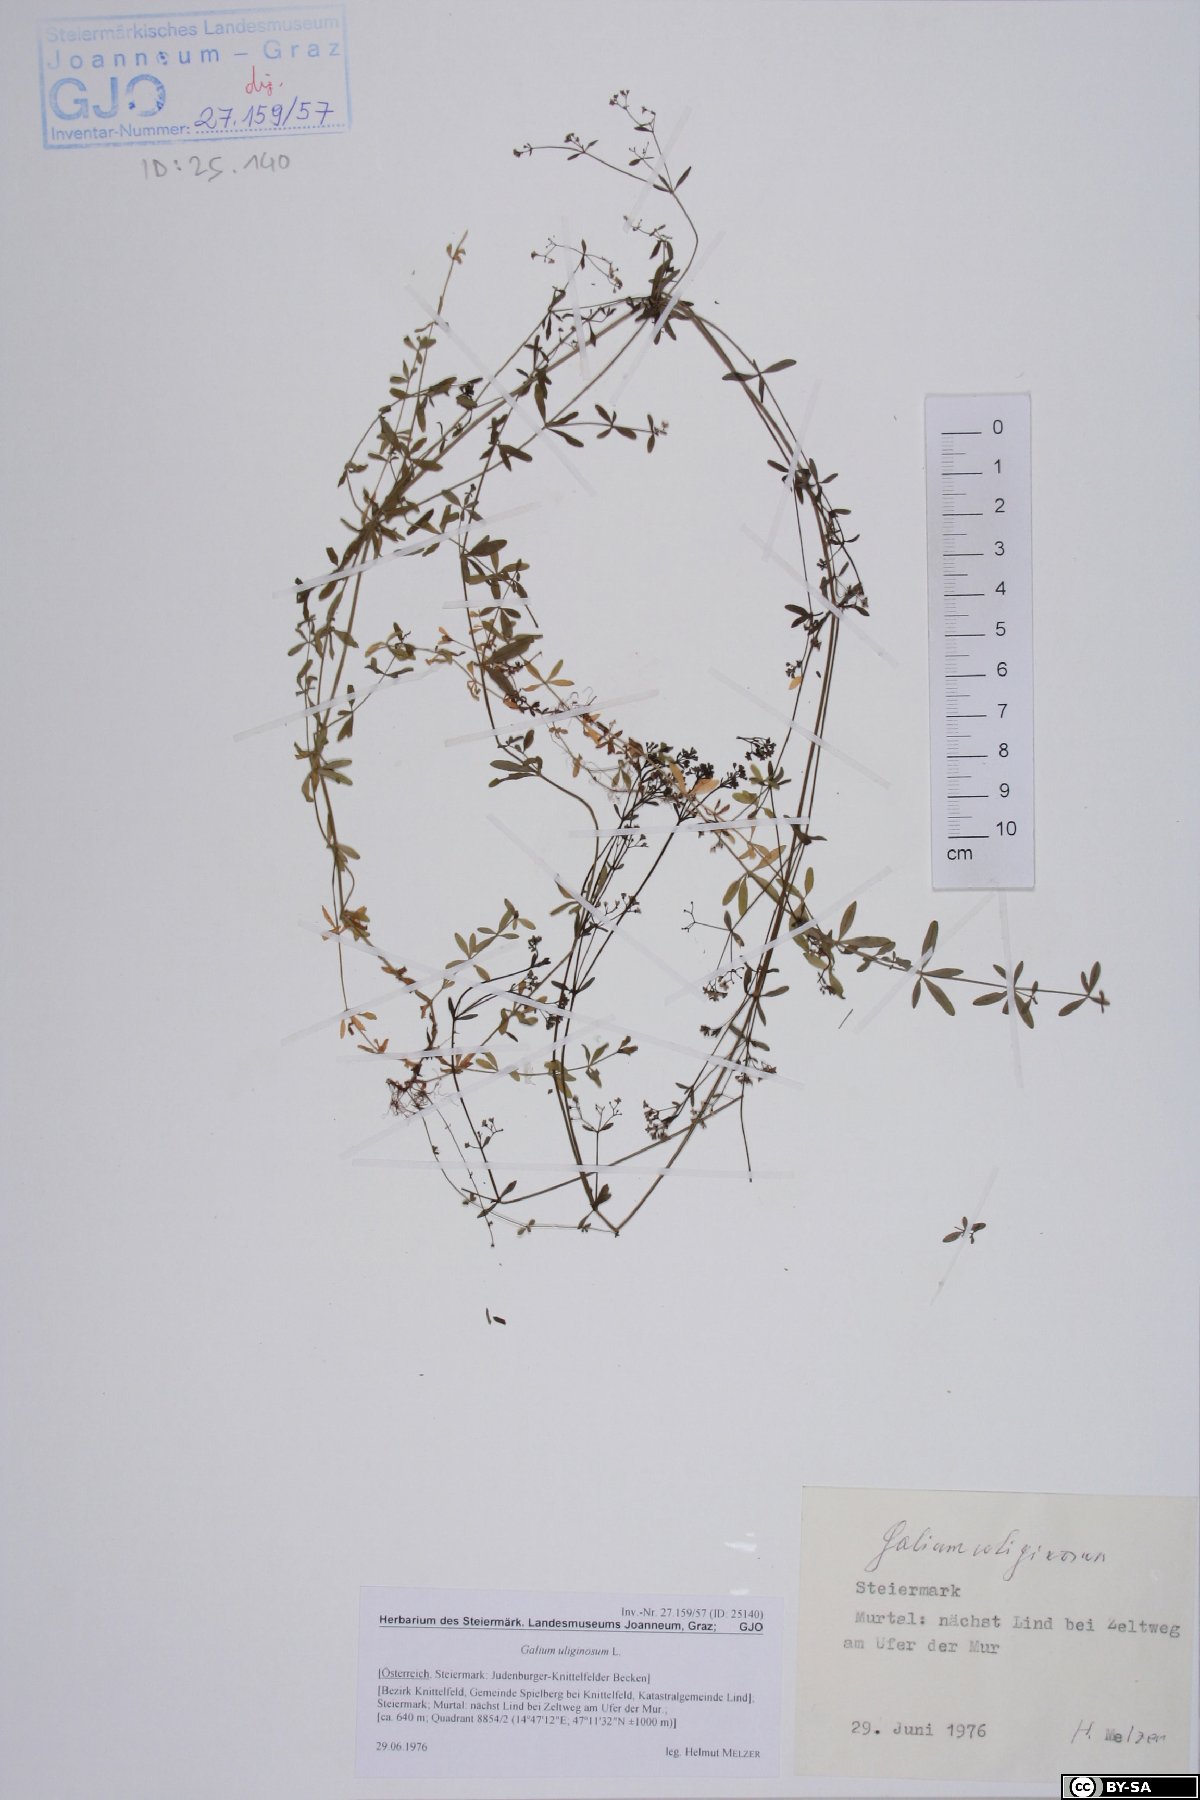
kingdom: Plantae
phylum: Tracheophyta
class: Magnoliopsida
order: Gentianales
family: Rubiaceae
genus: Galium
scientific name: Galium uliginosum
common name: Fen bedstraw
